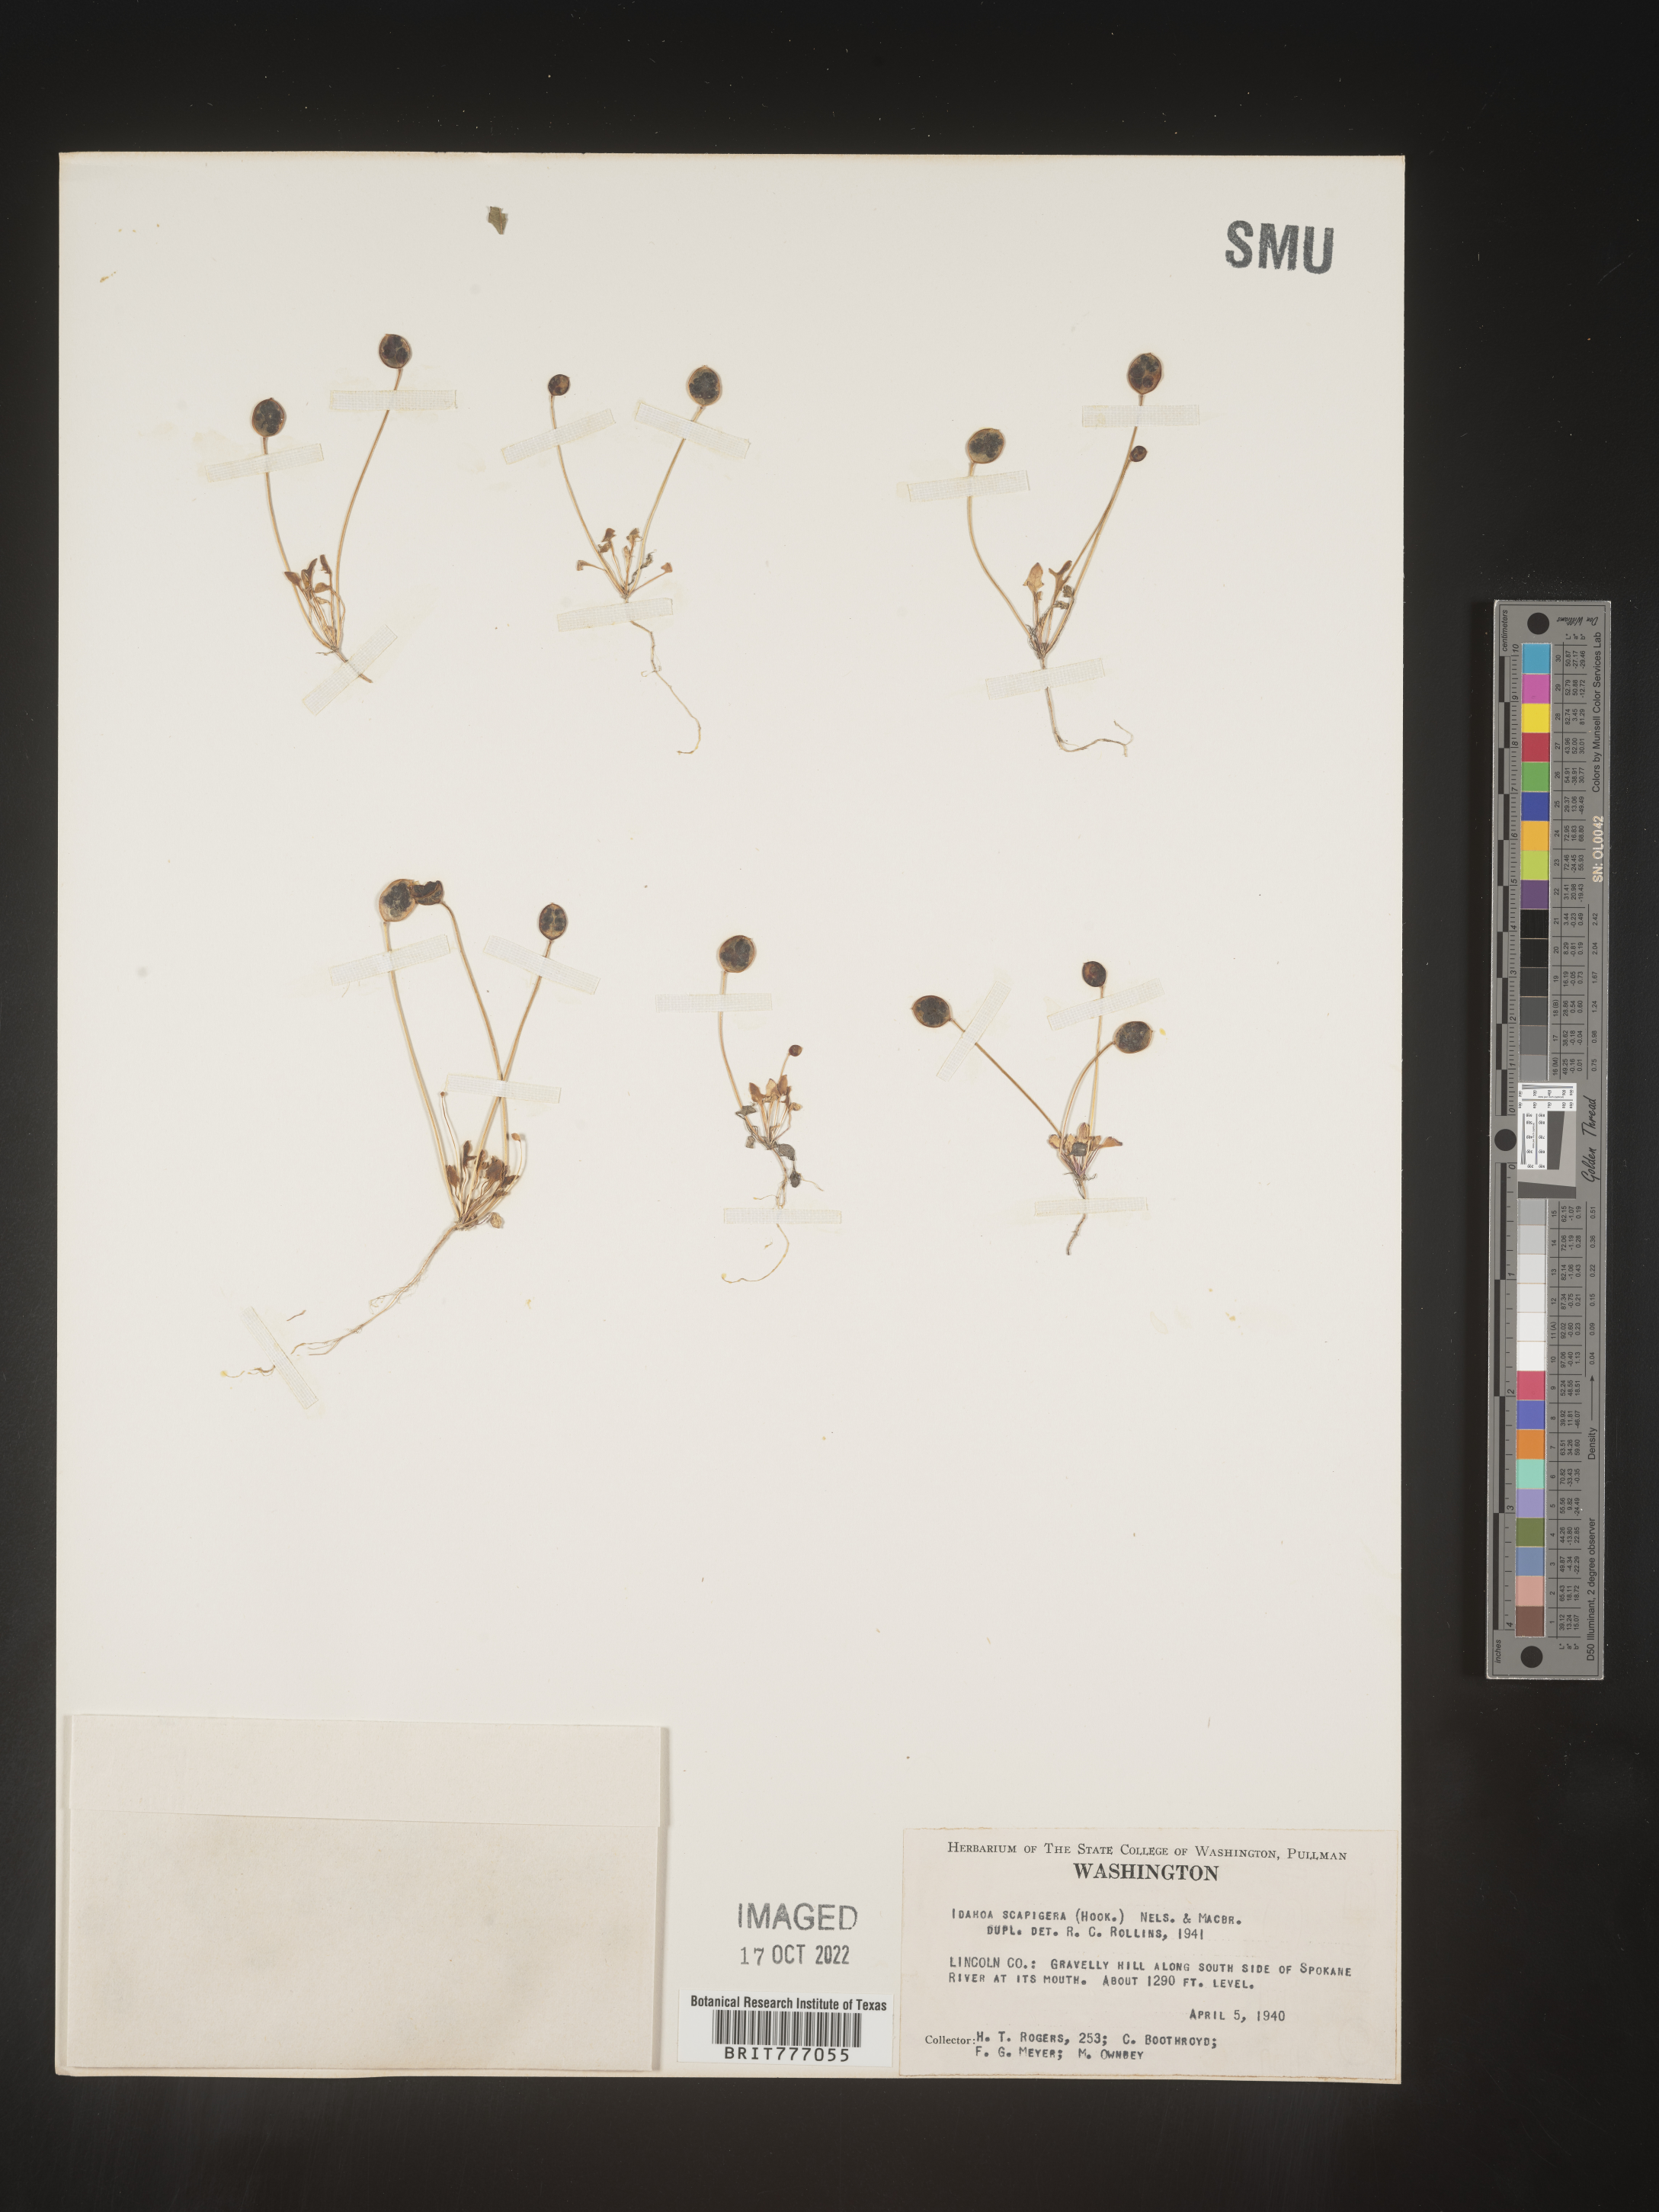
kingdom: Plantae
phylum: Tracheophyta
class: Magnoliopsida
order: Brassicales
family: Brassicaceae
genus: Idahoa
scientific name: Idahoa
